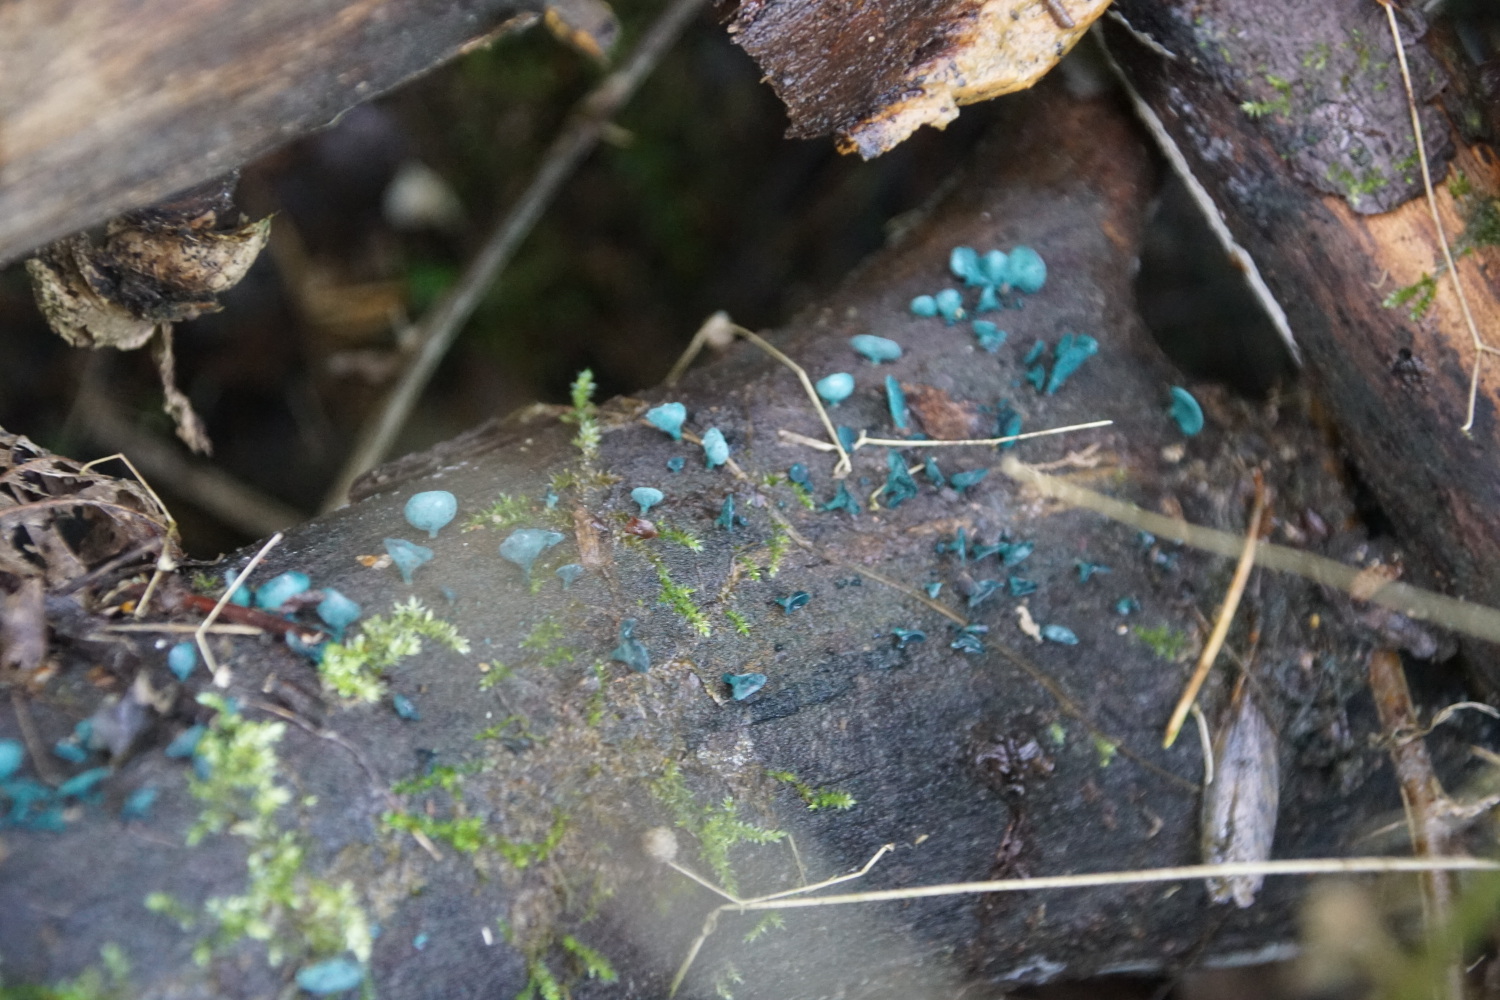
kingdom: Fungi
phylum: Ascomycota
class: Leotiomycetes
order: Helotiales
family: Chlorociboriaceae
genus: Chlorociboria
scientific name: Chlorociboria aeruginascens
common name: almindelig grønskive
